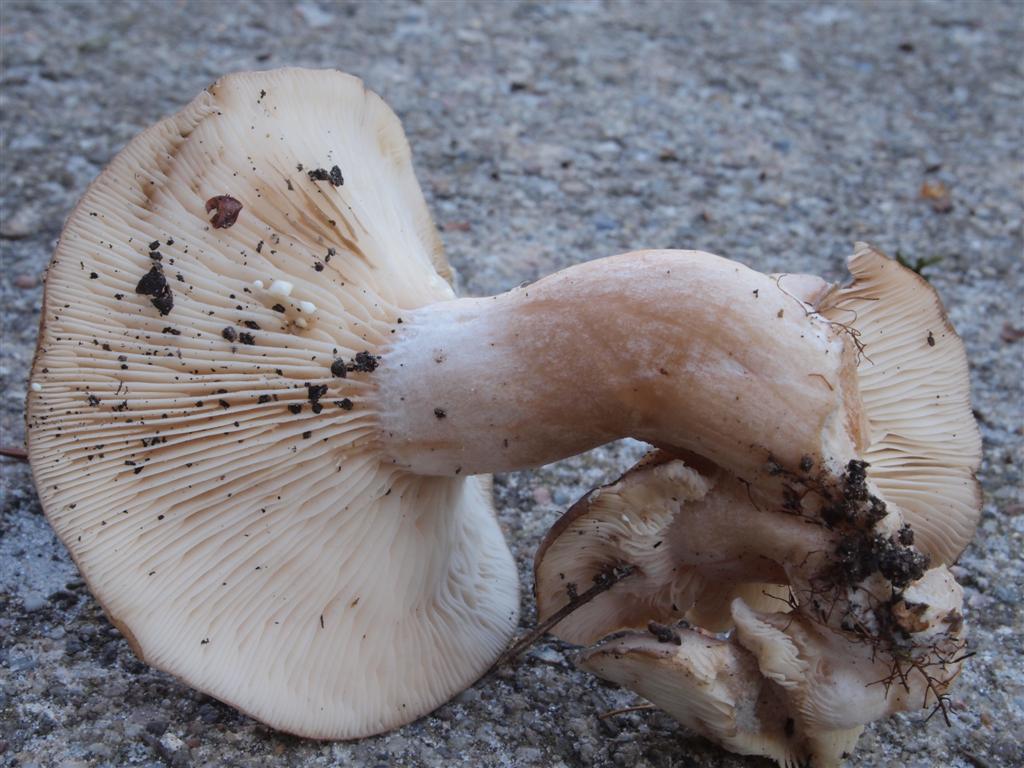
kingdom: Fungi
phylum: Basidiomycota
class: Agaricomycetes
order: Russulales
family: Russulaceae
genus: Lactarius
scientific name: Lactarius vietus
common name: violetgrå mælkehat
